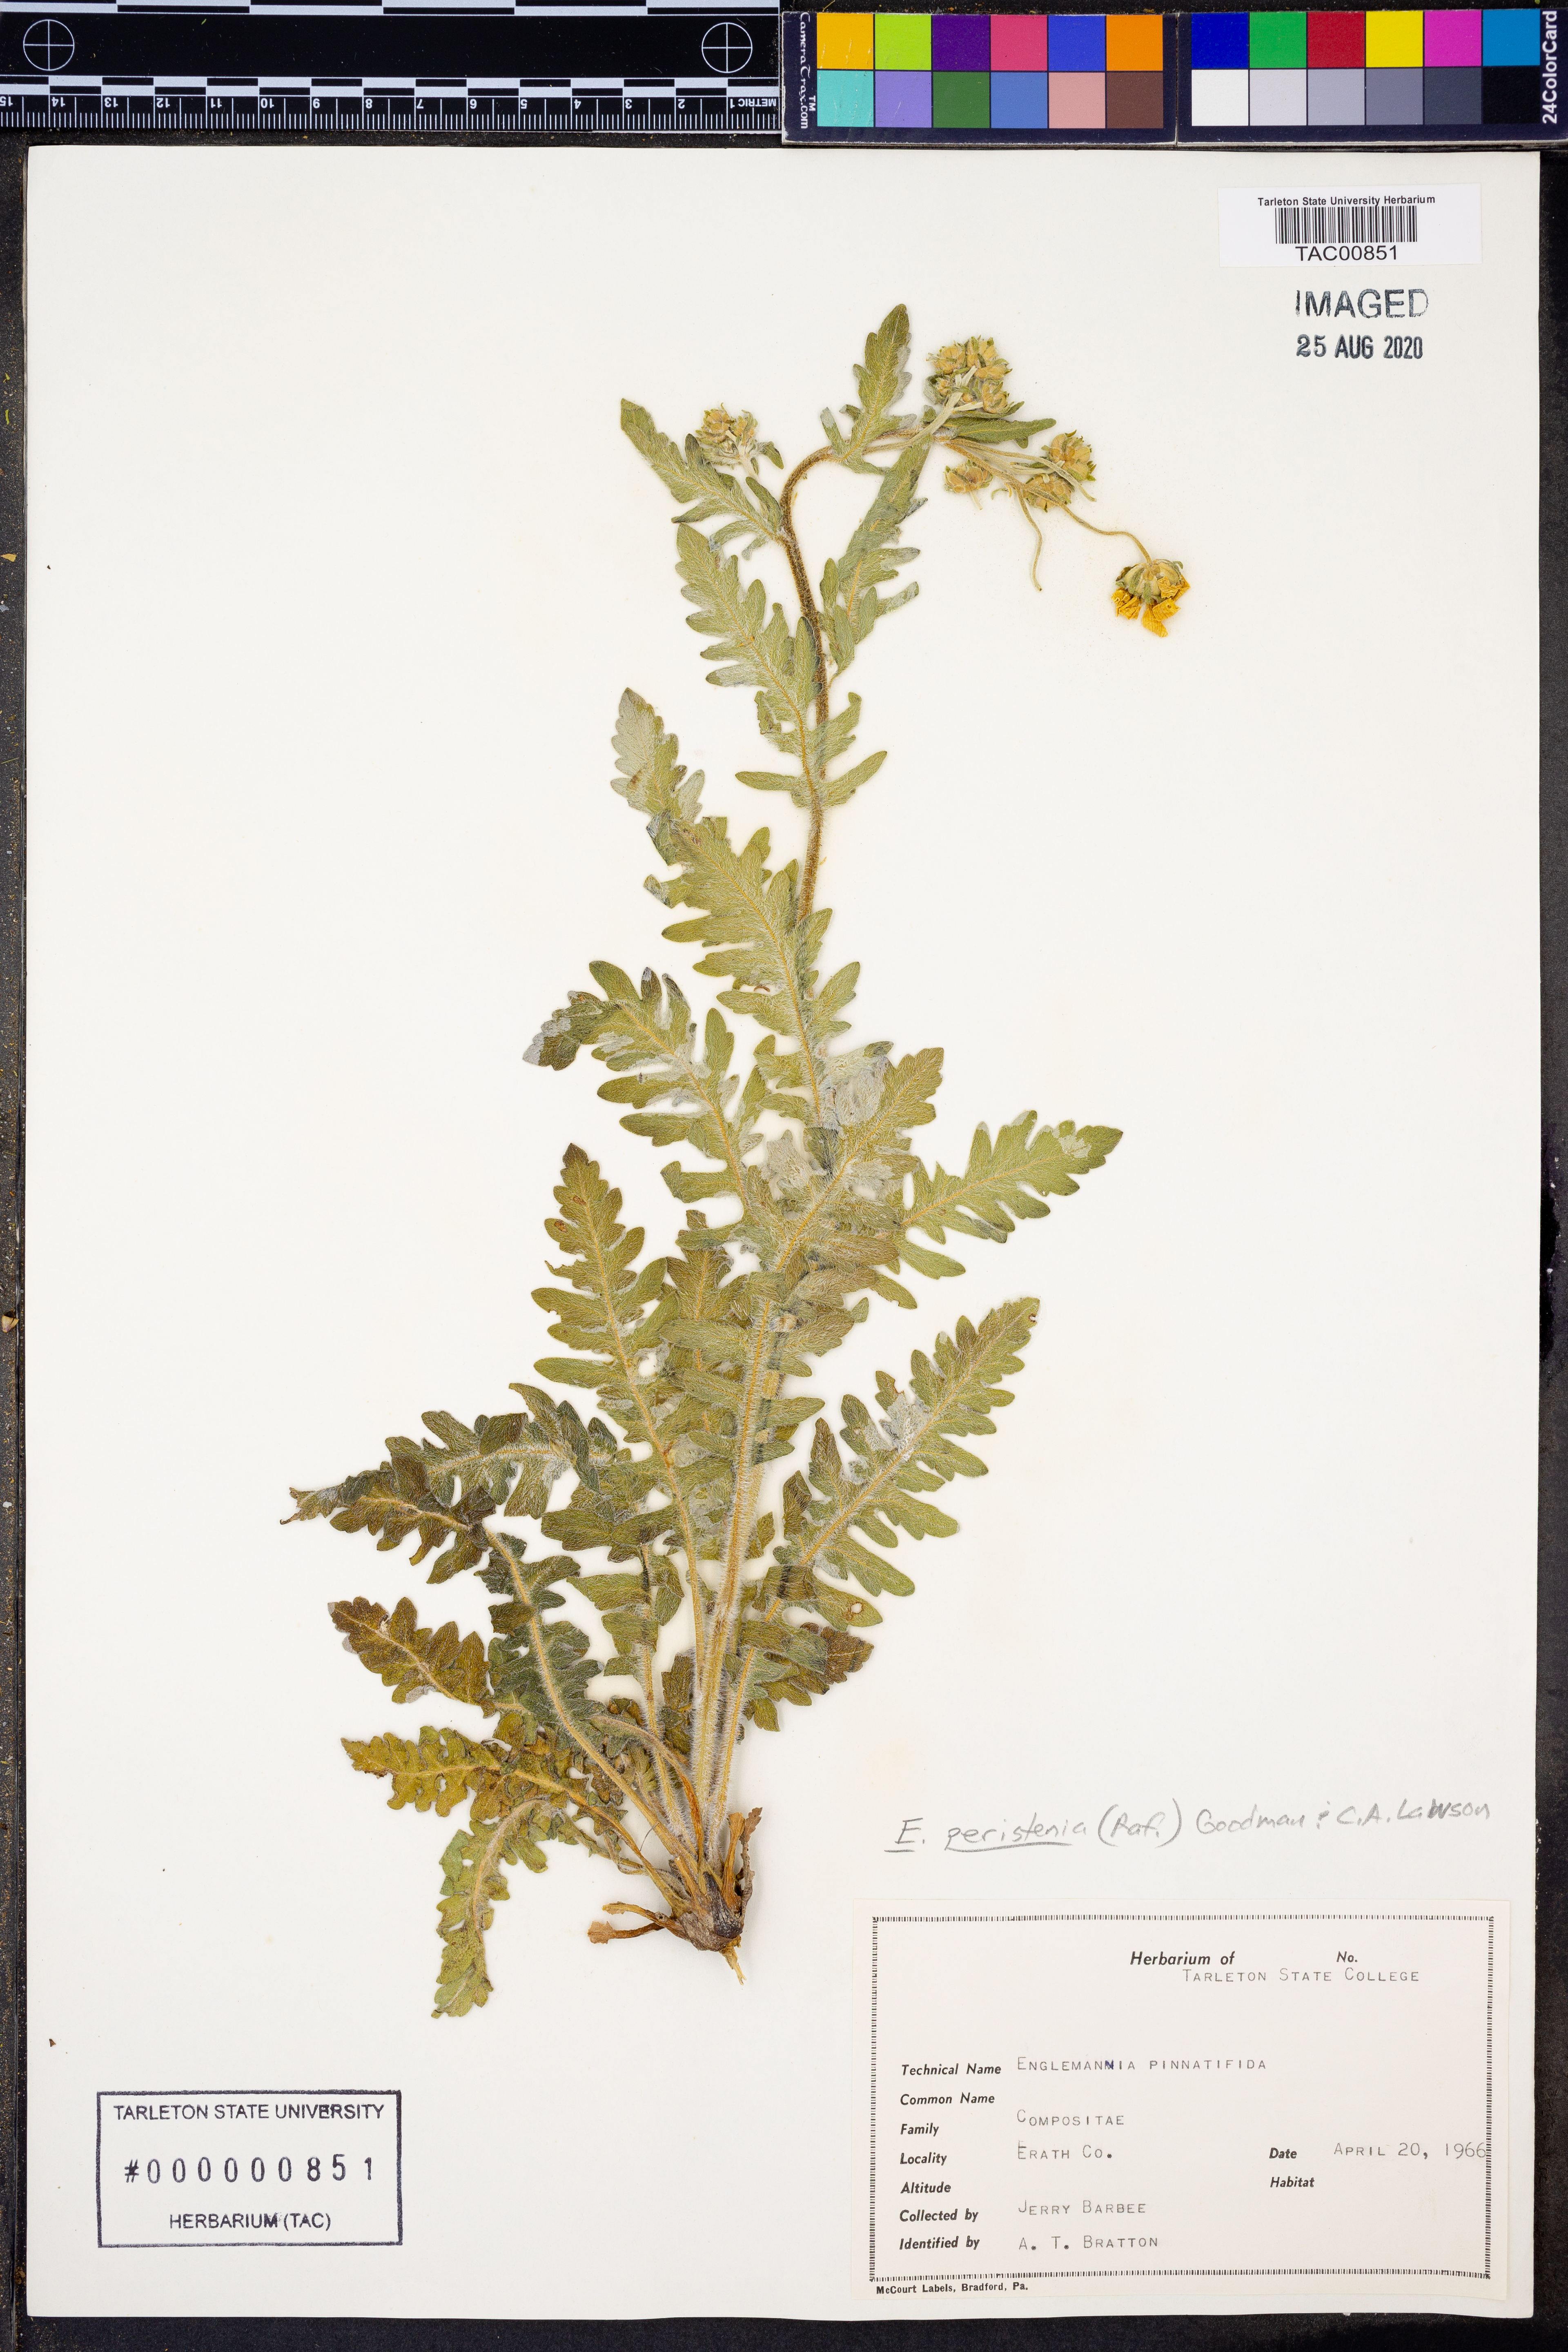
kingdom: Plantae
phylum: Tracheophyta
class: Magnoliopsida
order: Asterales
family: Asteraceae
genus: Engelmannia
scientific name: Engelmannia peristenia
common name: Engelmann's daisy
